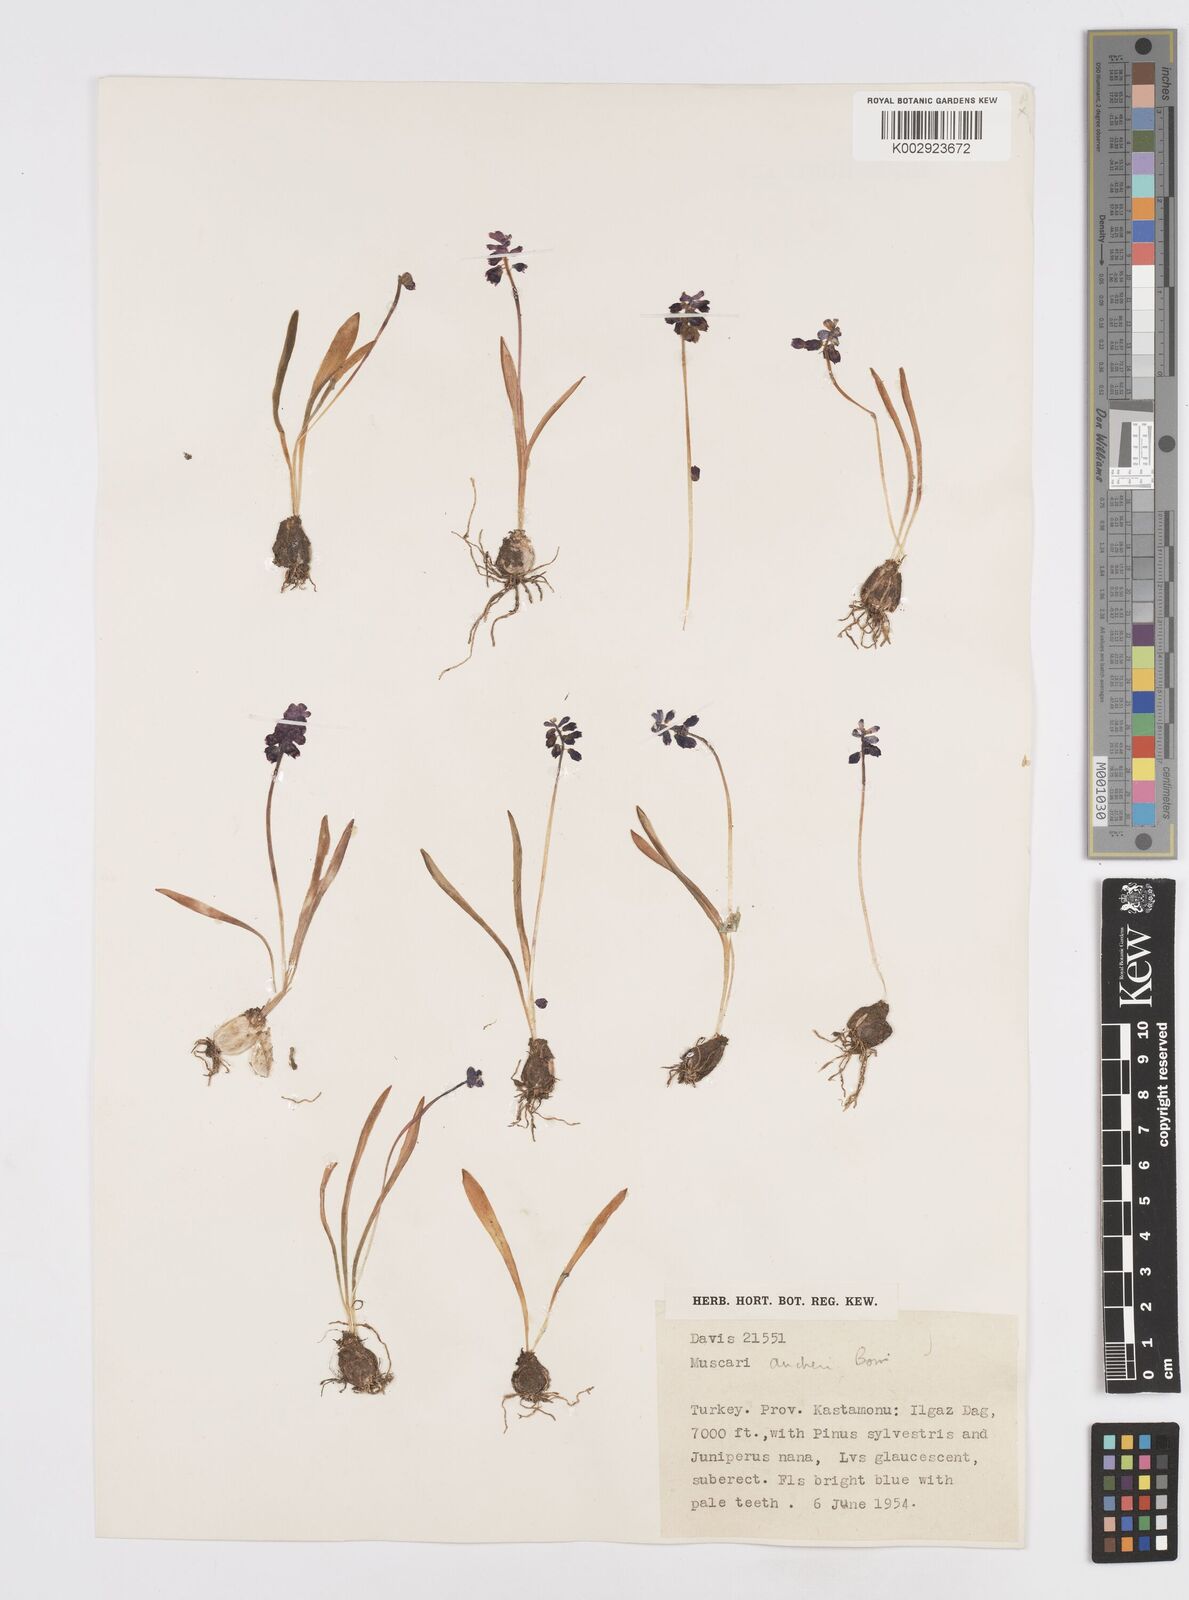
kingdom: Plantae
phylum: Tracheophyta
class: Liliopsida
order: Asparagales
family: Asparagaceae
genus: Muscari
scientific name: Muscari aucheri
